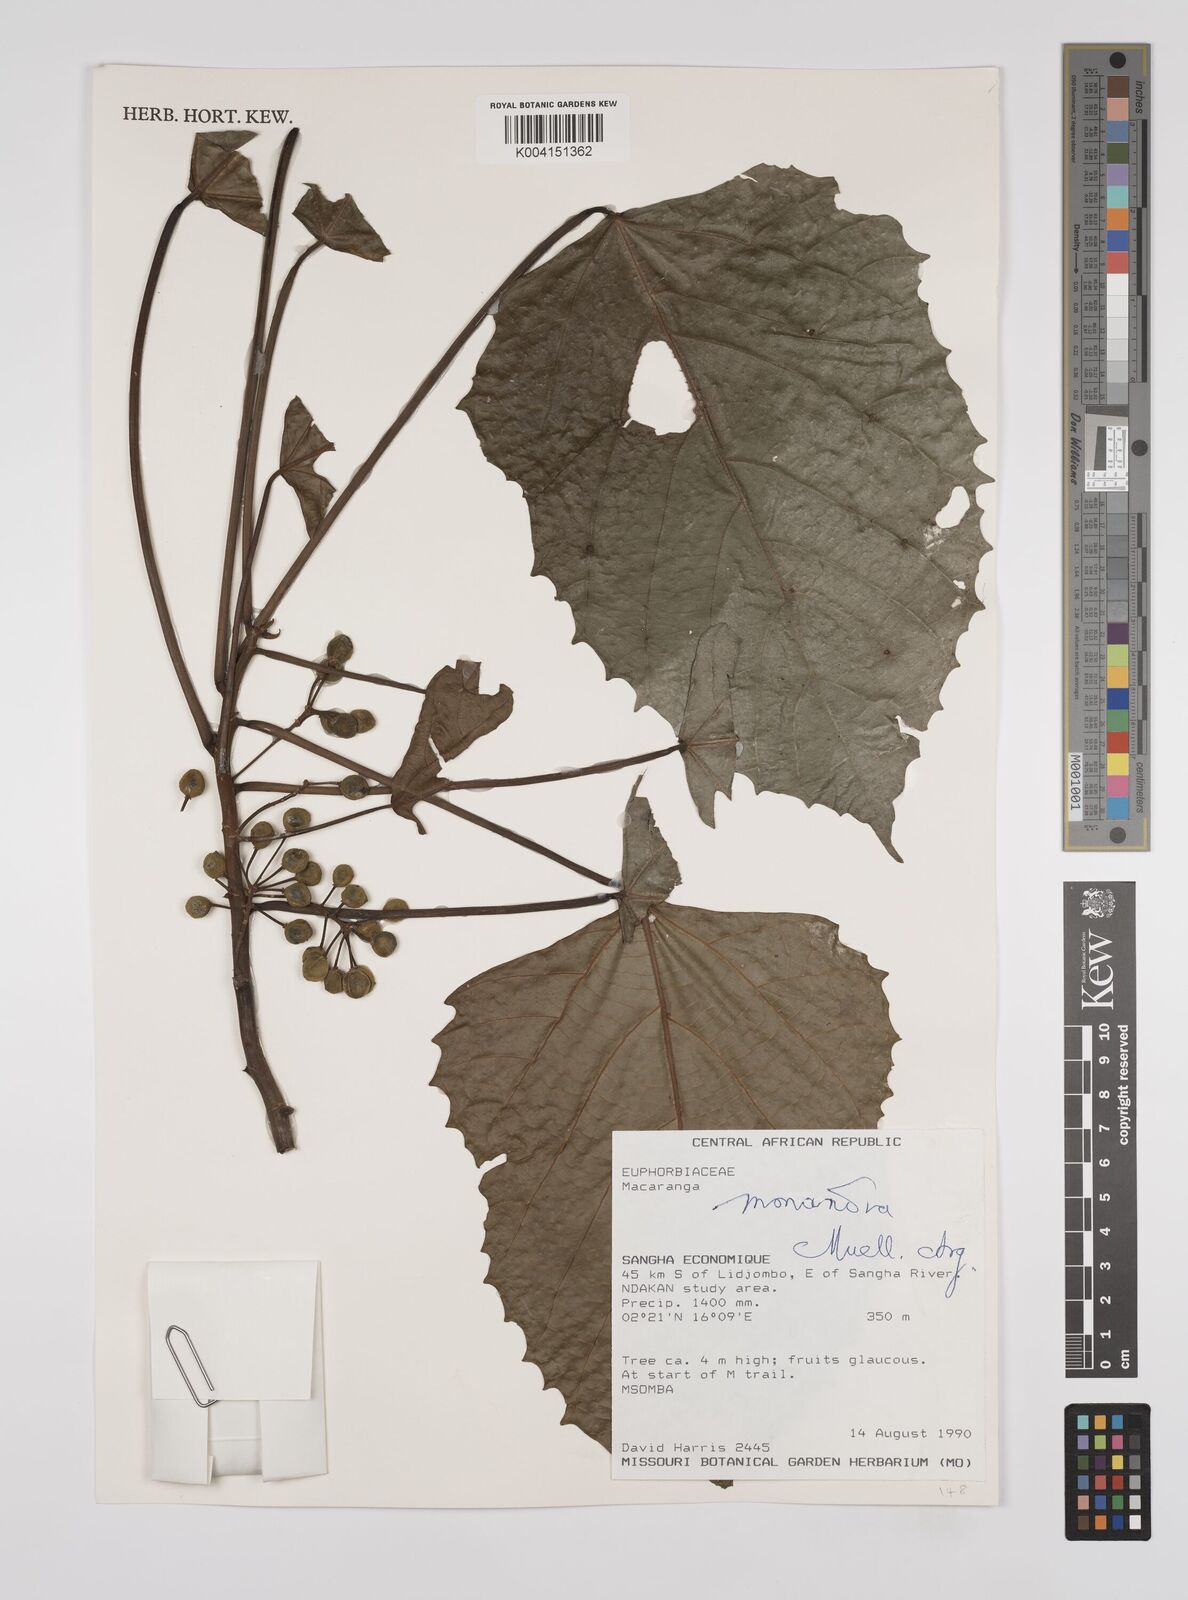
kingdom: Plantae
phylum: Tracheophyta
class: Magnoliopsida
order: Malpighiales
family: Euphorbiaceae
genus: Macaranga
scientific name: Macaranga monandra
